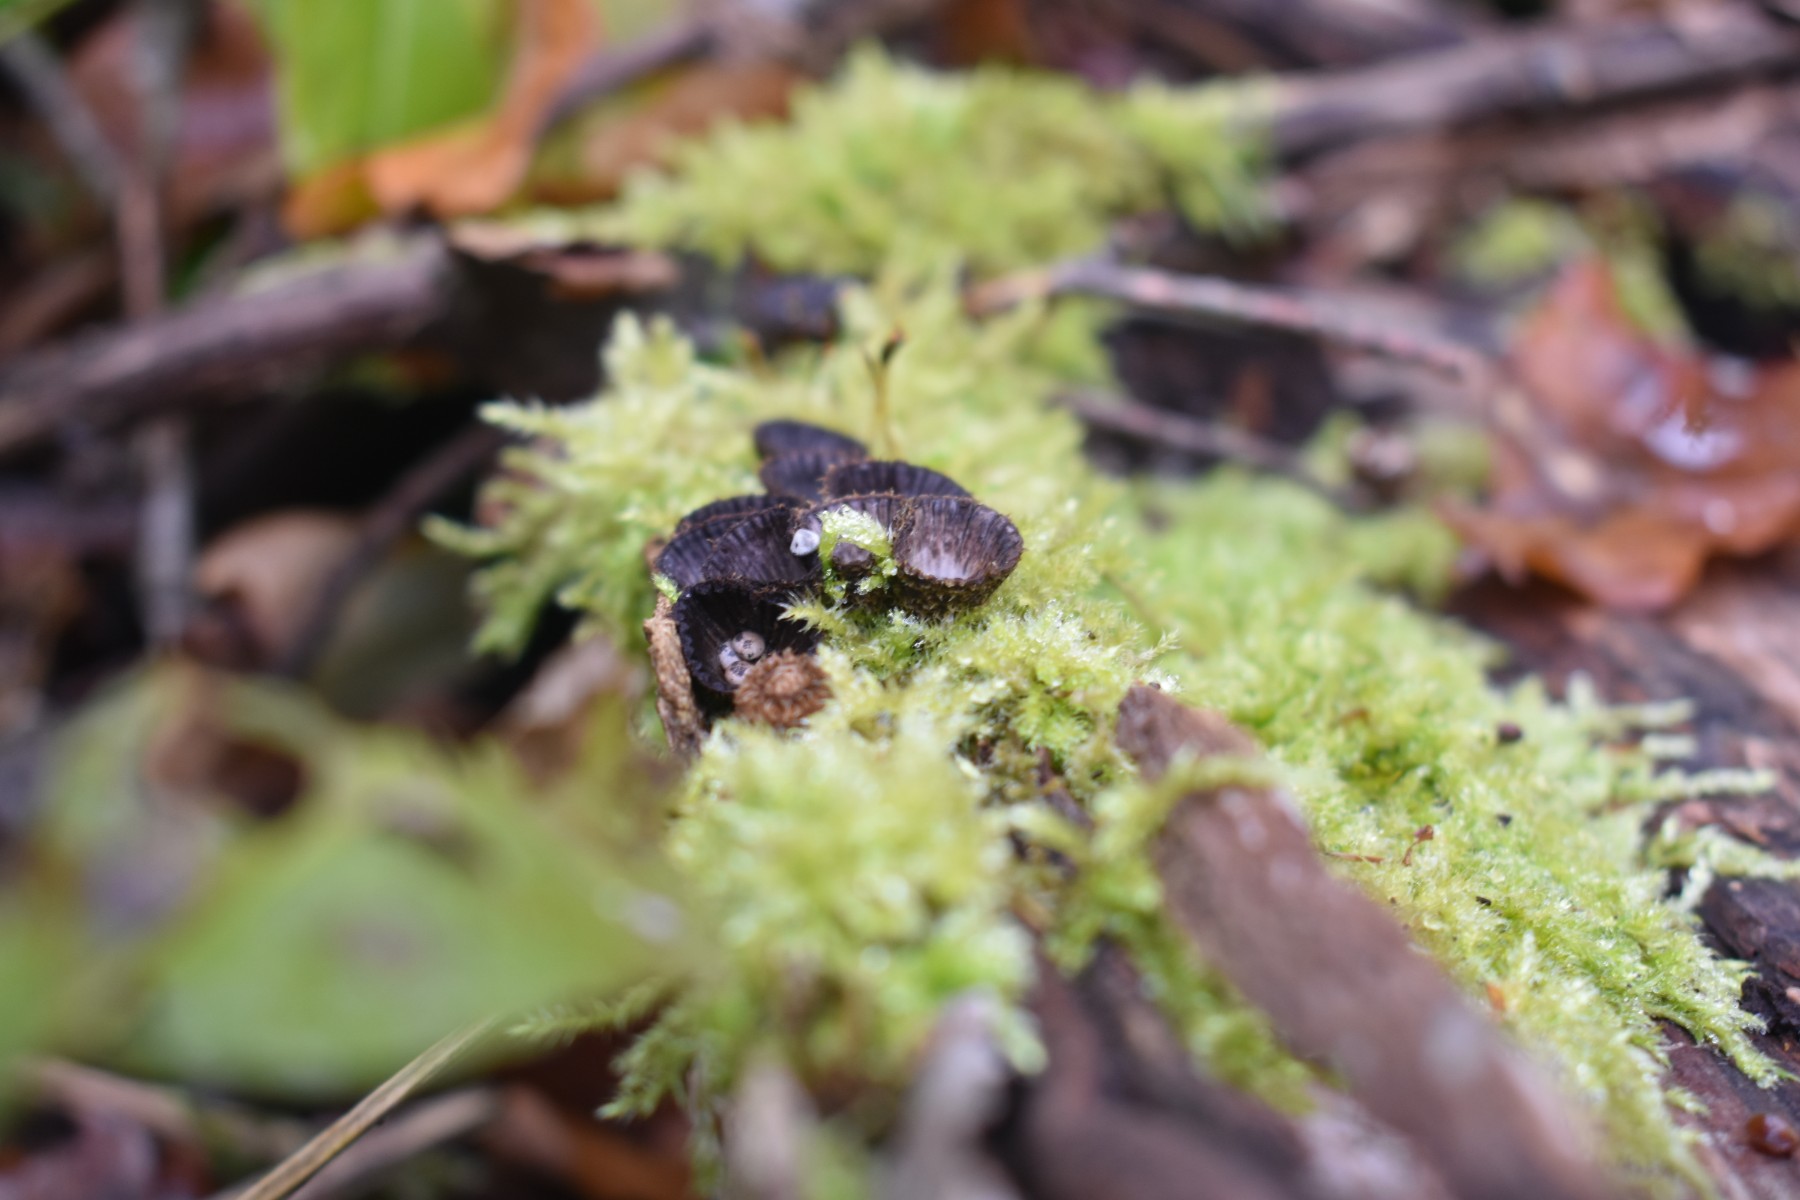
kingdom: Fungi
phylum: Basidiomycota
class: Agaricomycetes
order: Agaricales
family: Agaricaceae
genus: Cyathus
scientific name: Cyathus striatus
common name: stribet redesvamp
